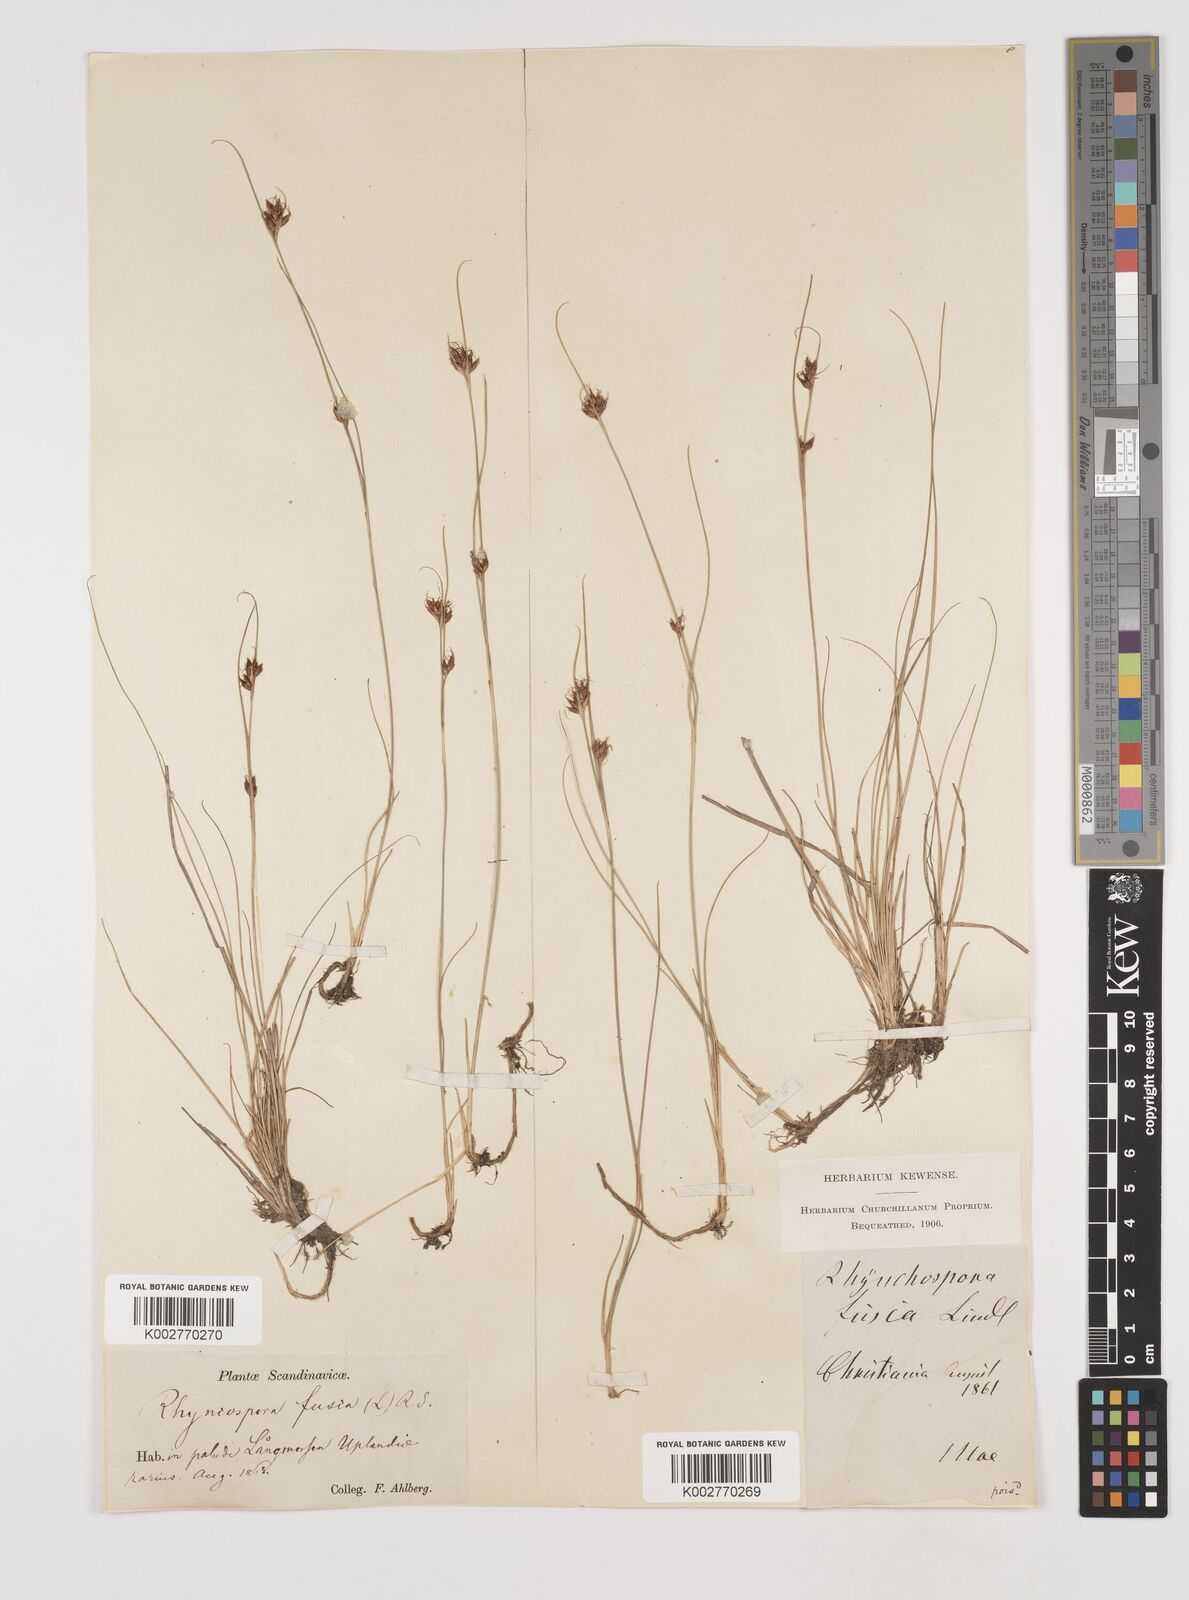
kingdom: Plantae
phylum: Tracheophyta
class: Liliopsida
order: Poales
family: Cyperaceae
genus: Rhynchospora
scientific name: Rhynchospora fusca
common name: Brown beak-sedge
